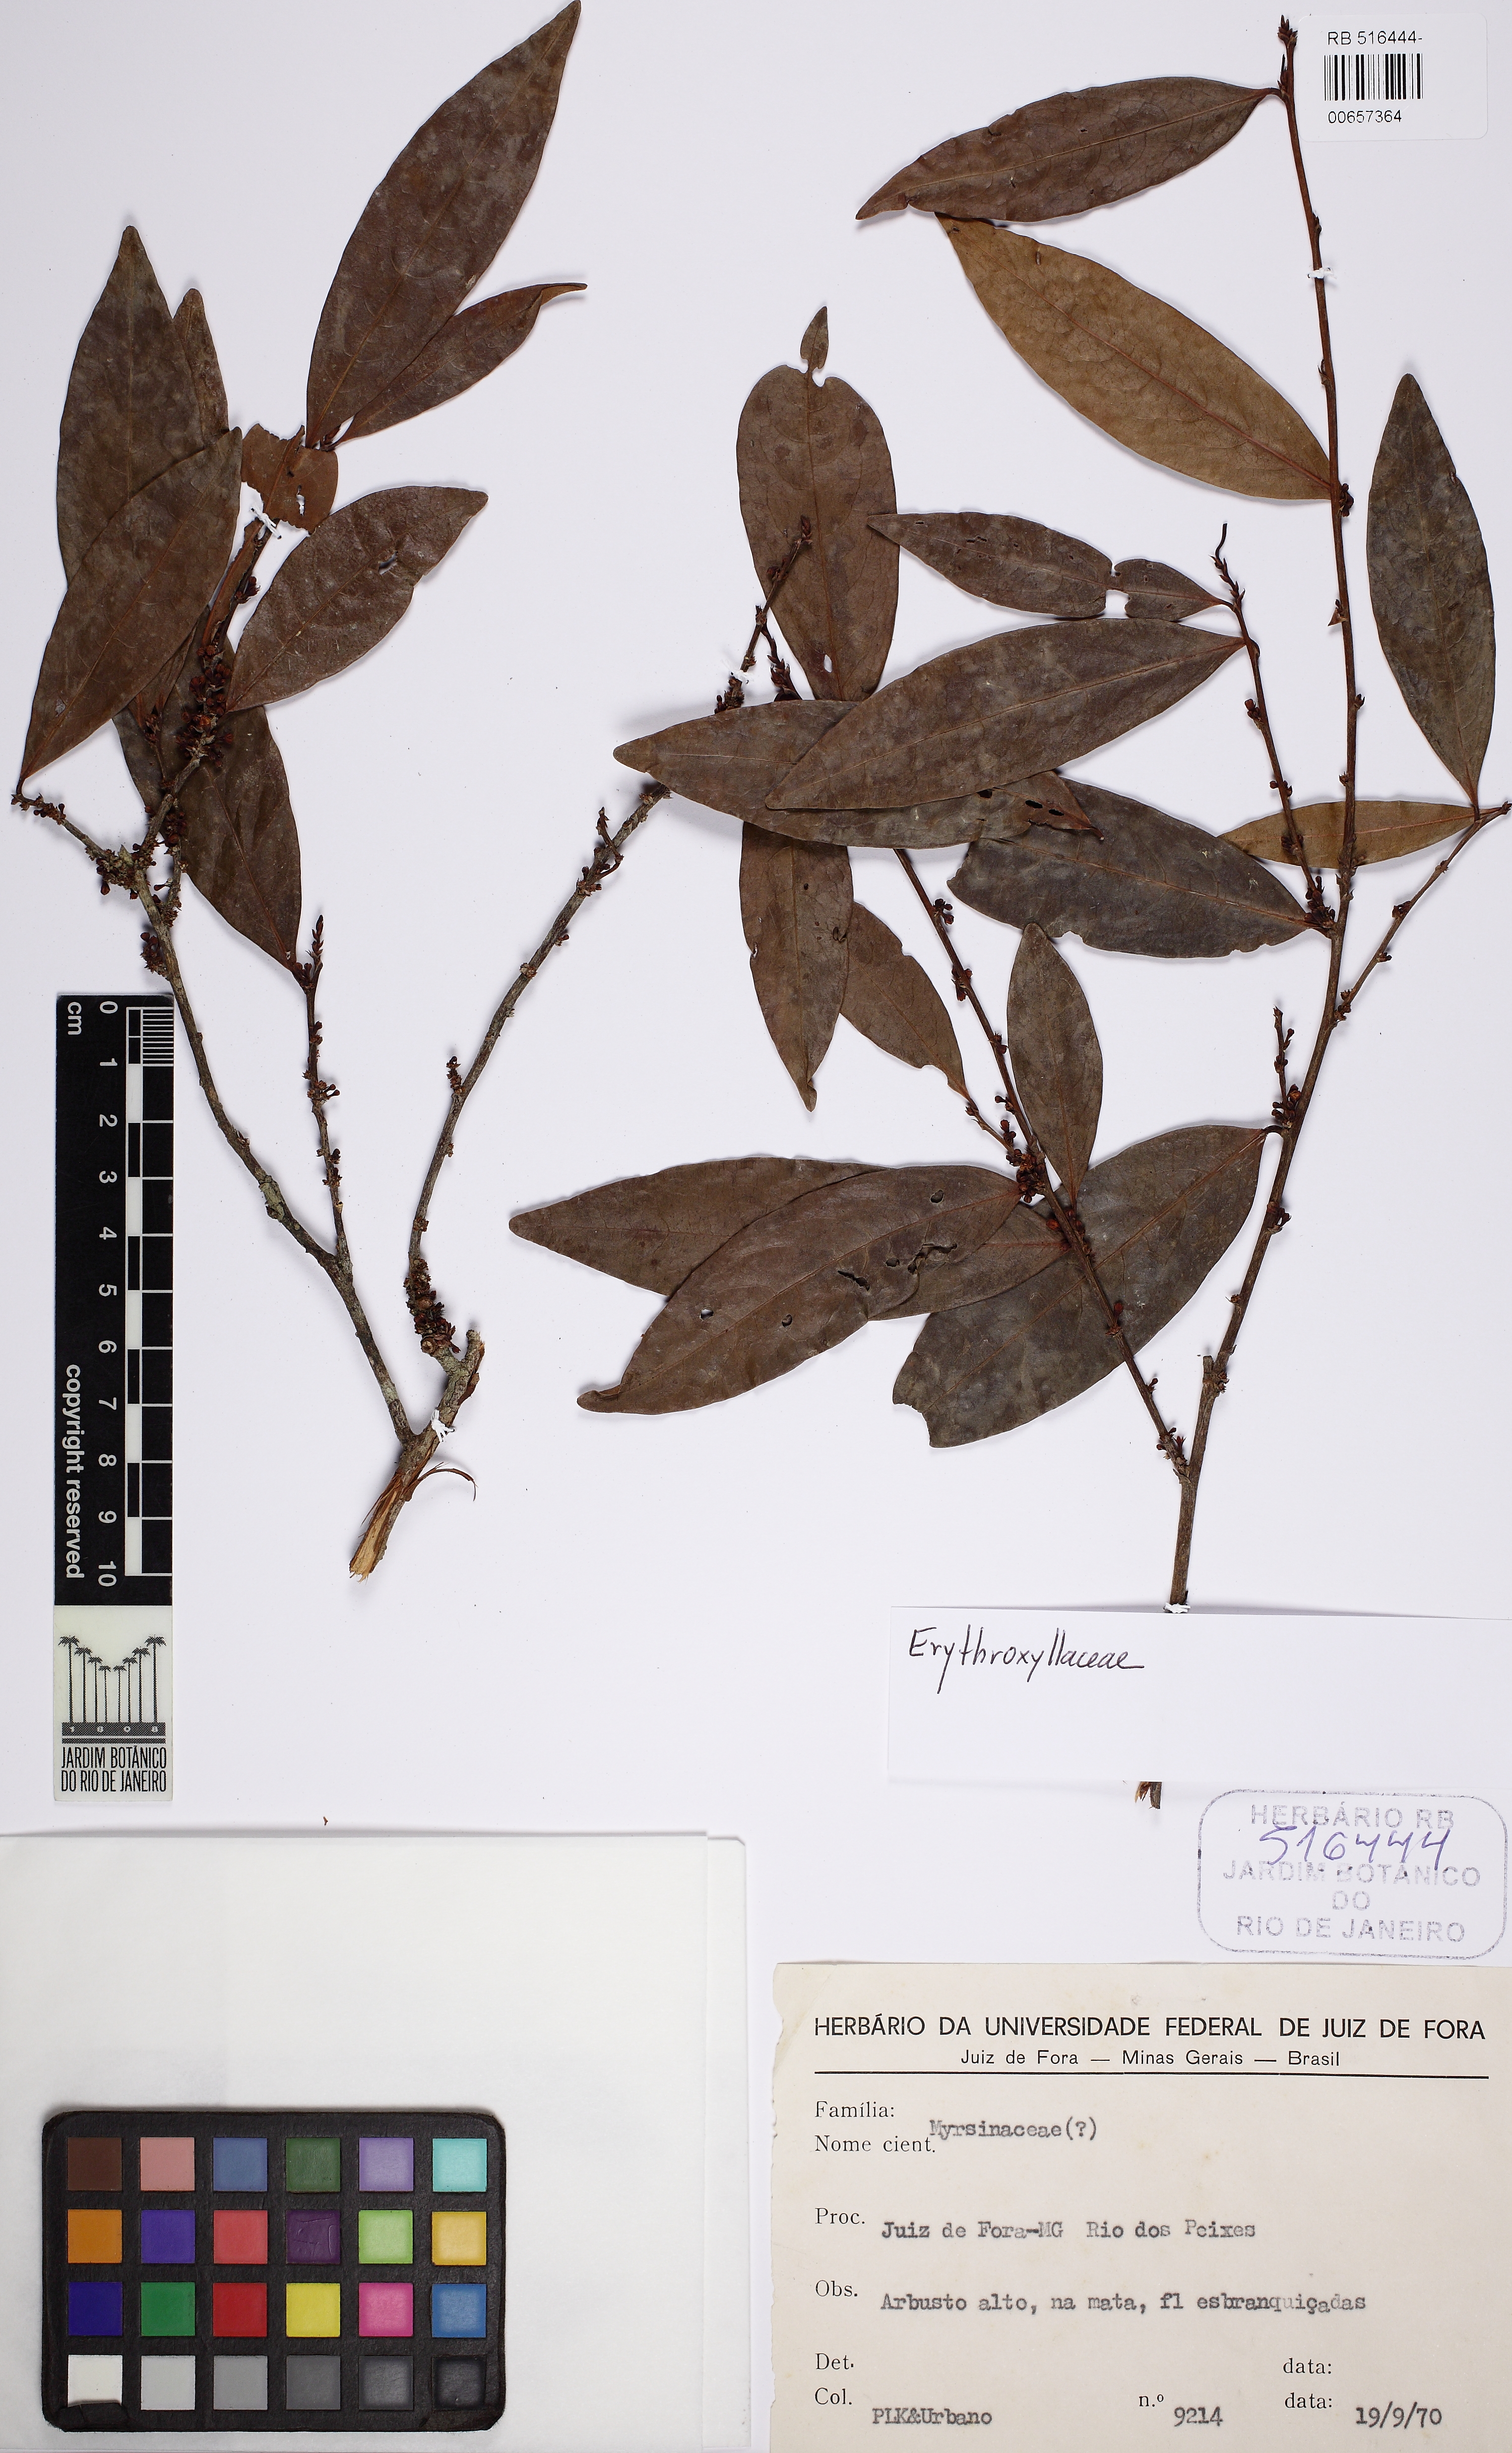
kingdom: Plantae
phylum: Tracheophyta
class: Magnoliopsida
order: Malpighiales
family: Erythroxylaceae
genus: Erythroxylum
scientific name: Erythroxylum citrifolium
